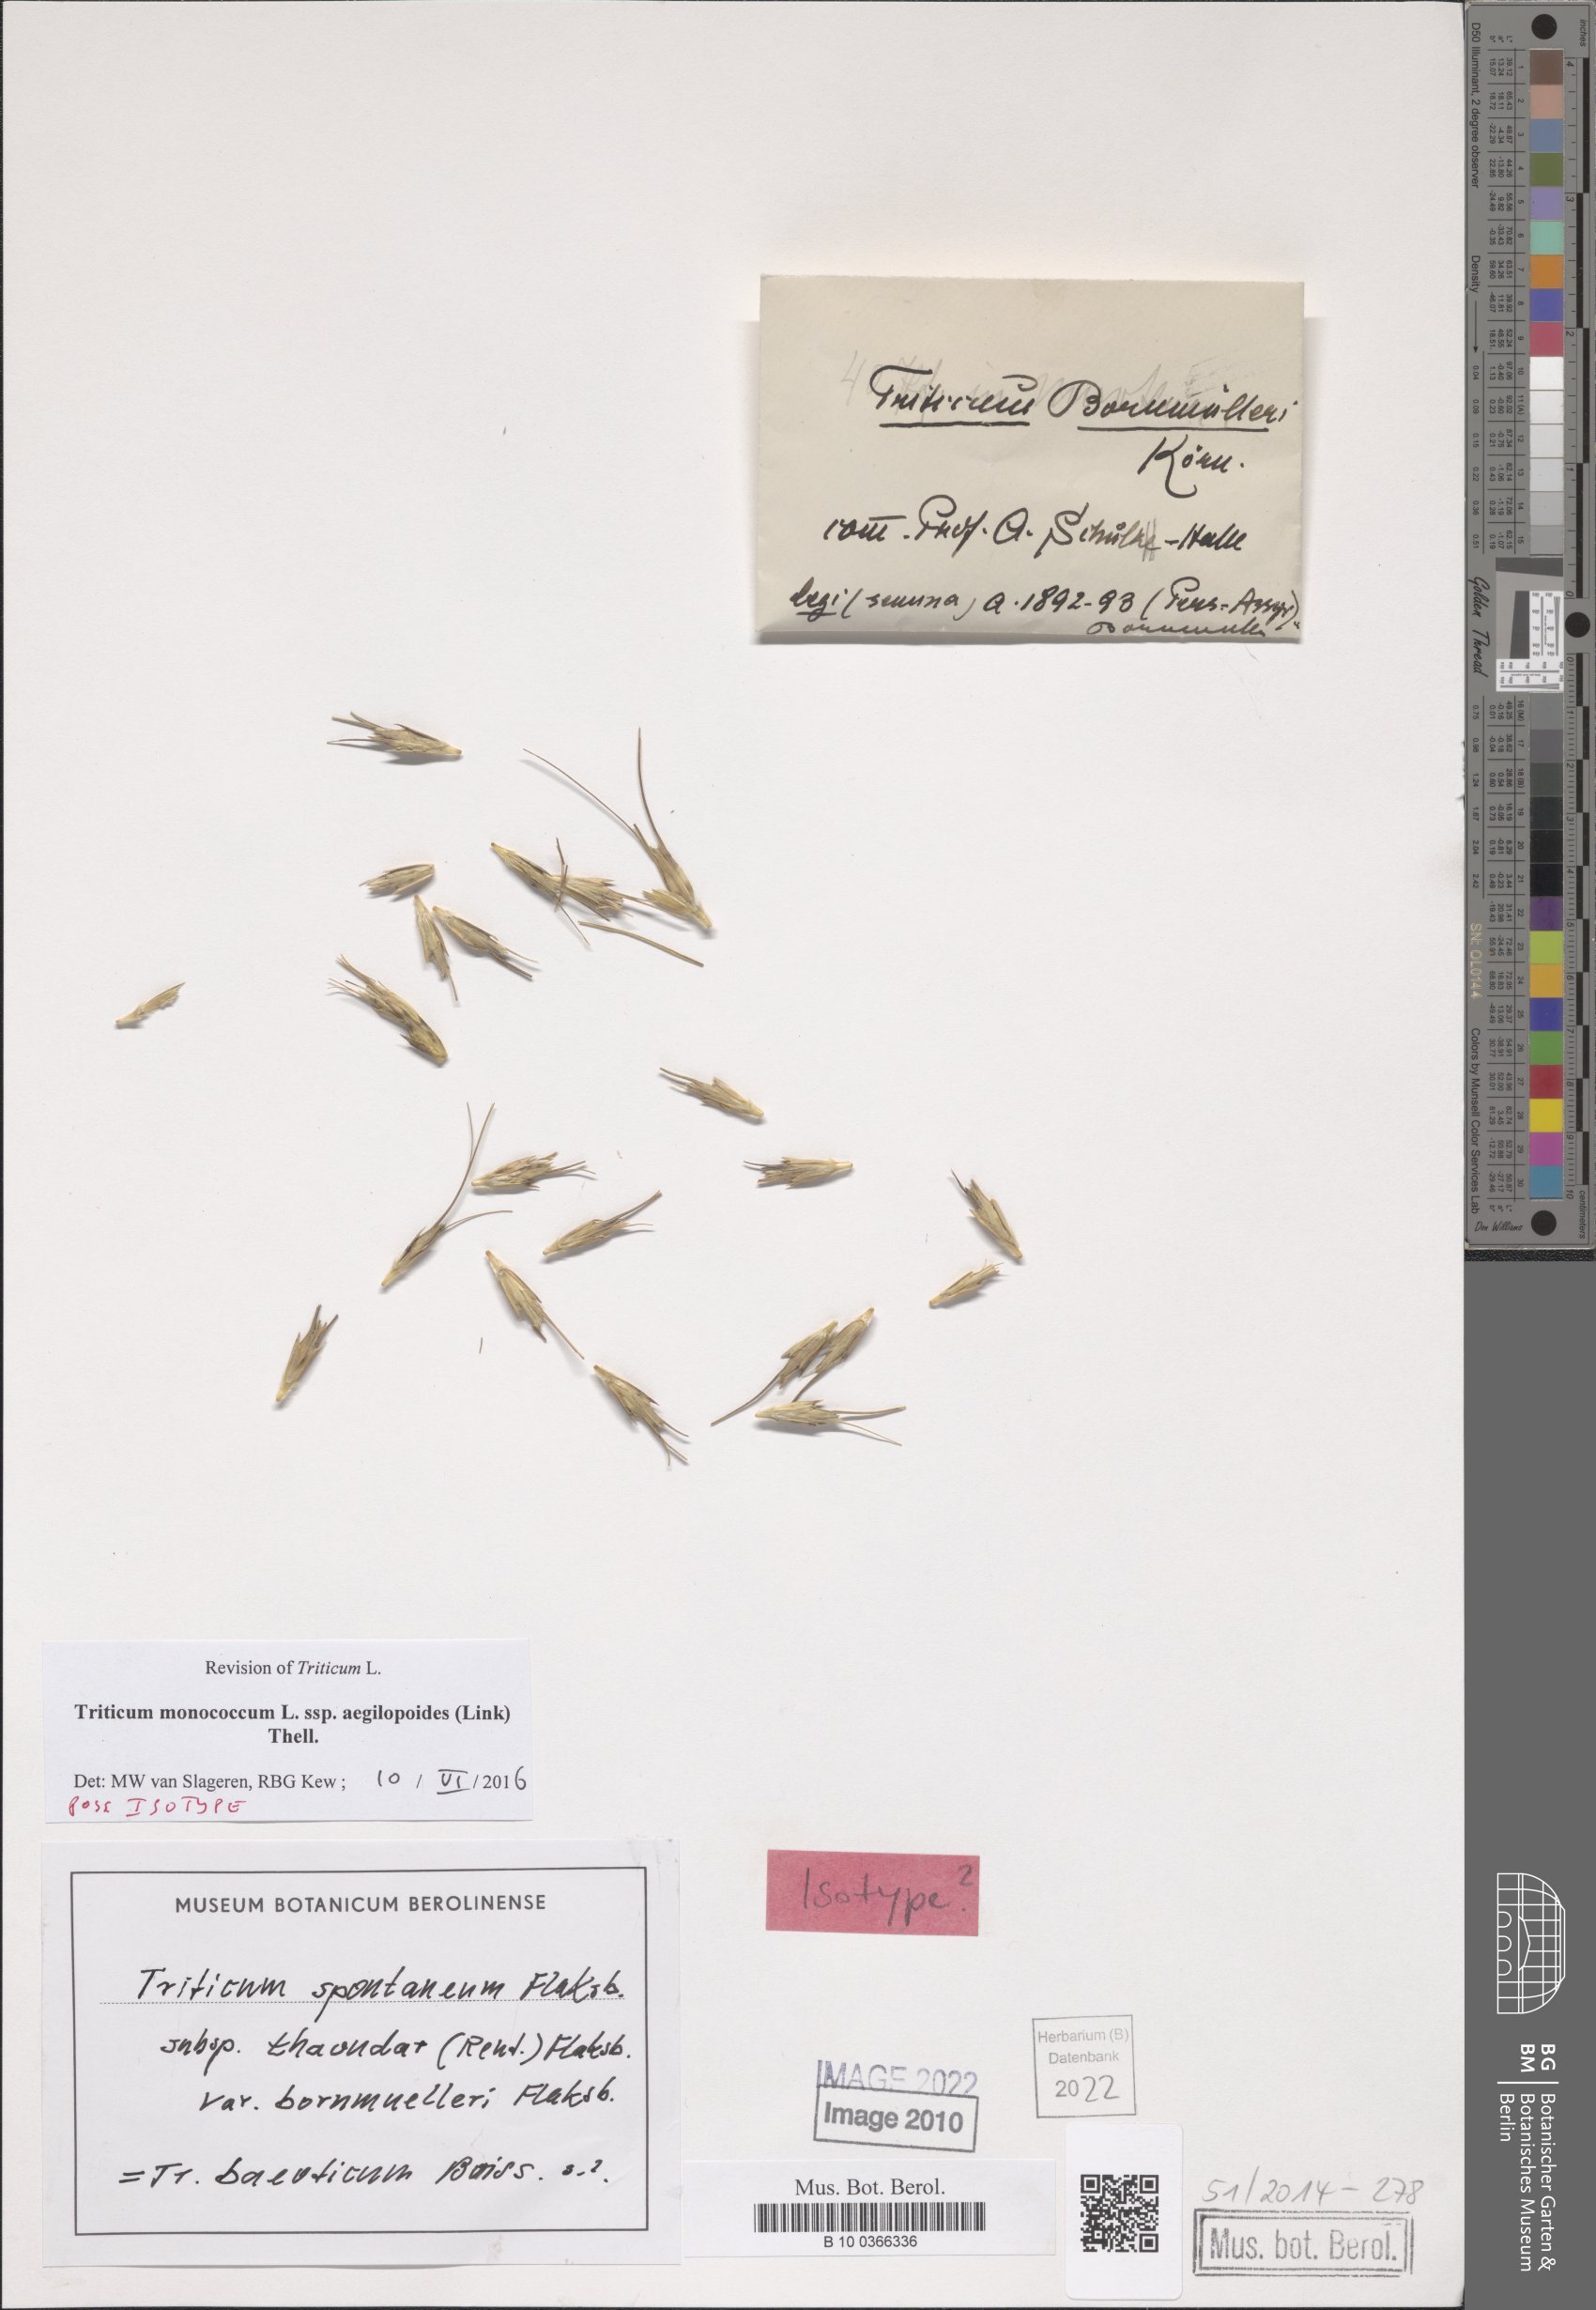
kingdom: Plantae
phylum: Tracheophyta
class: Liliopsida
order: Poales
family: Poaceae
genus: Triticum
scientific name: Triticum monococcum
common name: Einkorn
